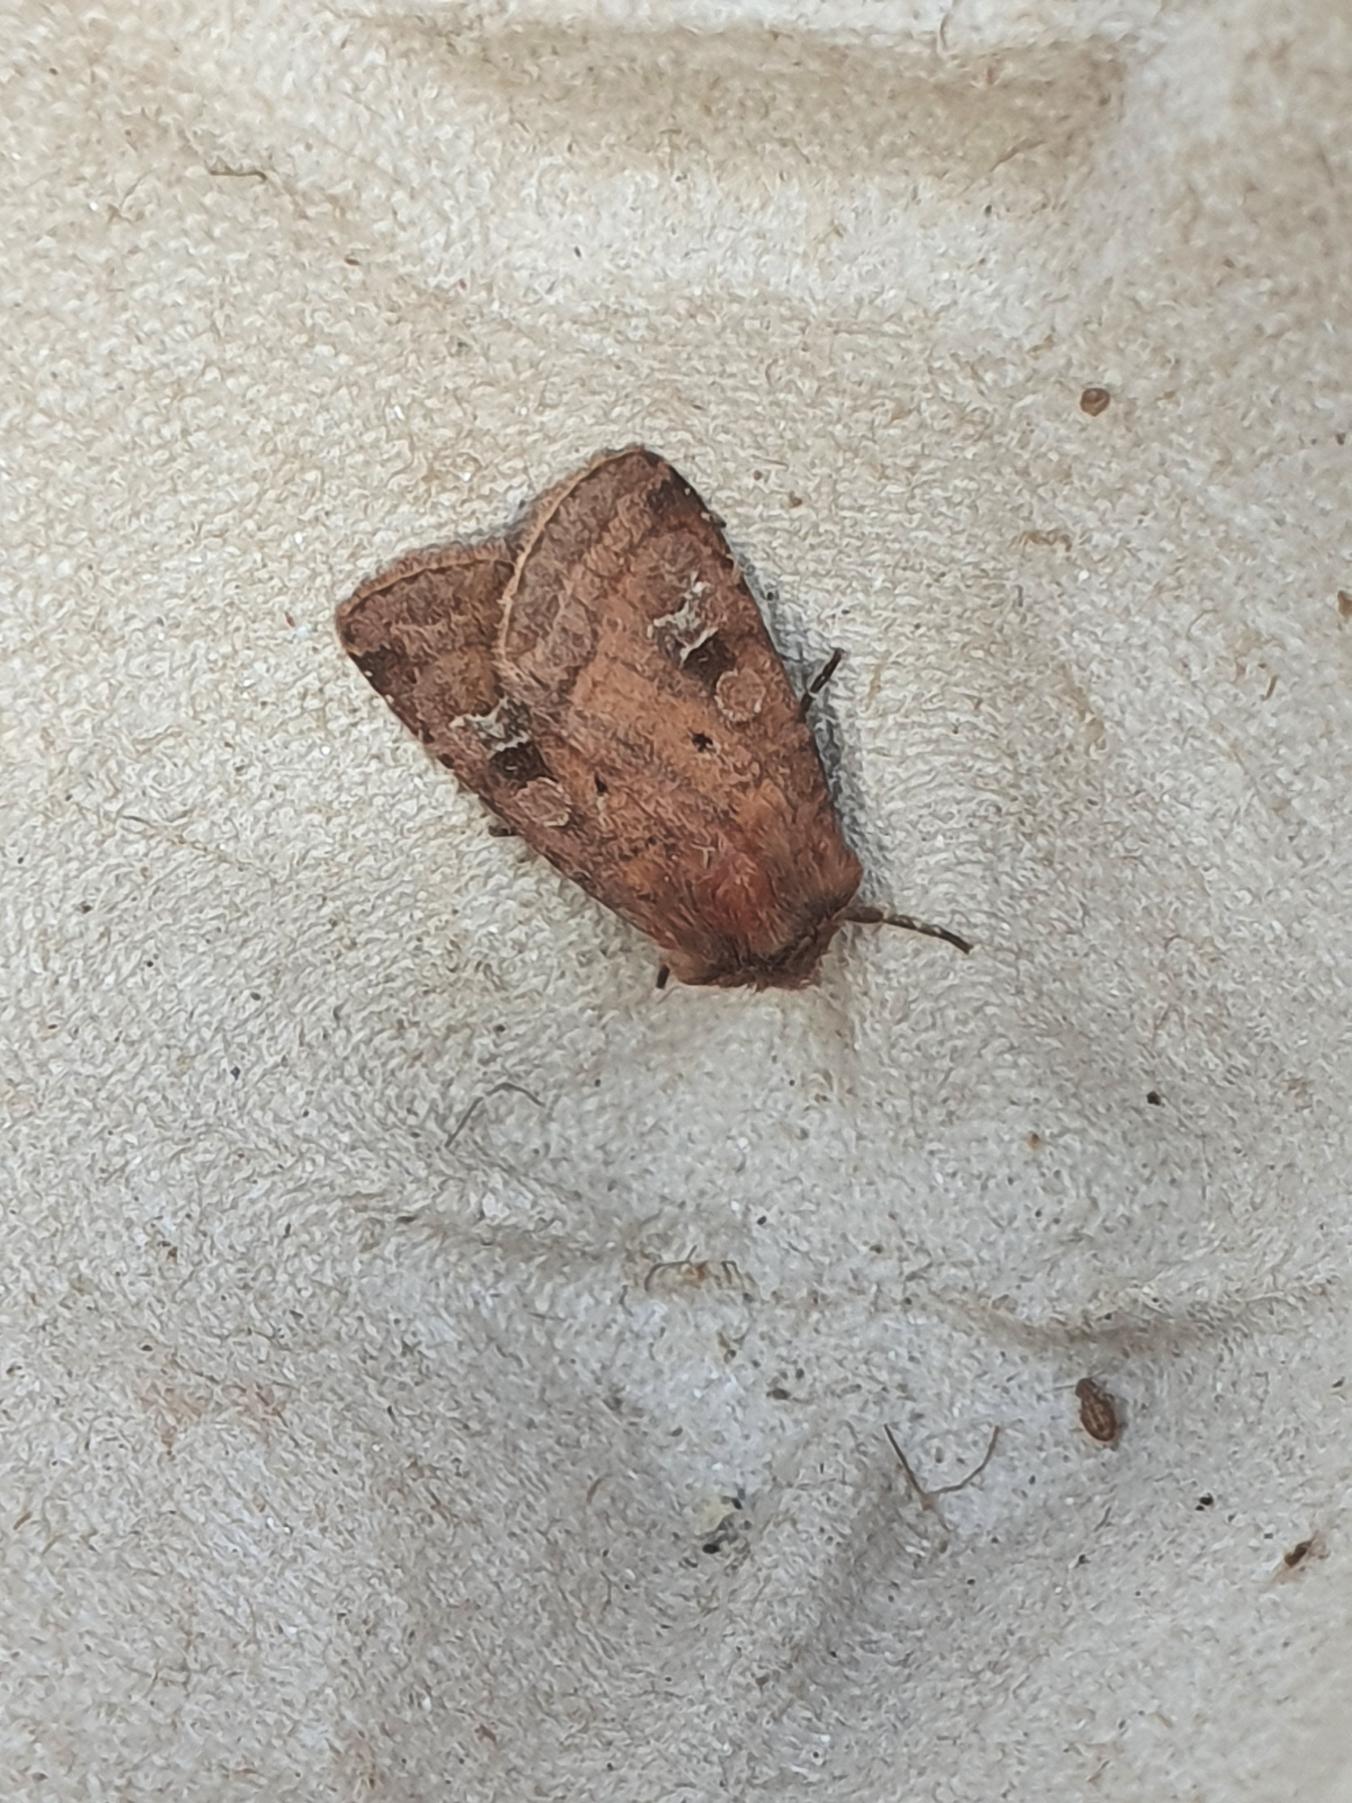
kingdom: Animalia
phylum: Arthropoda
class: Insecta
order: Lepidoptera
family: Noctuidae
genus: Diarsia
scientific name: Diarsia rubi
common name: Brombærtiggerugle
